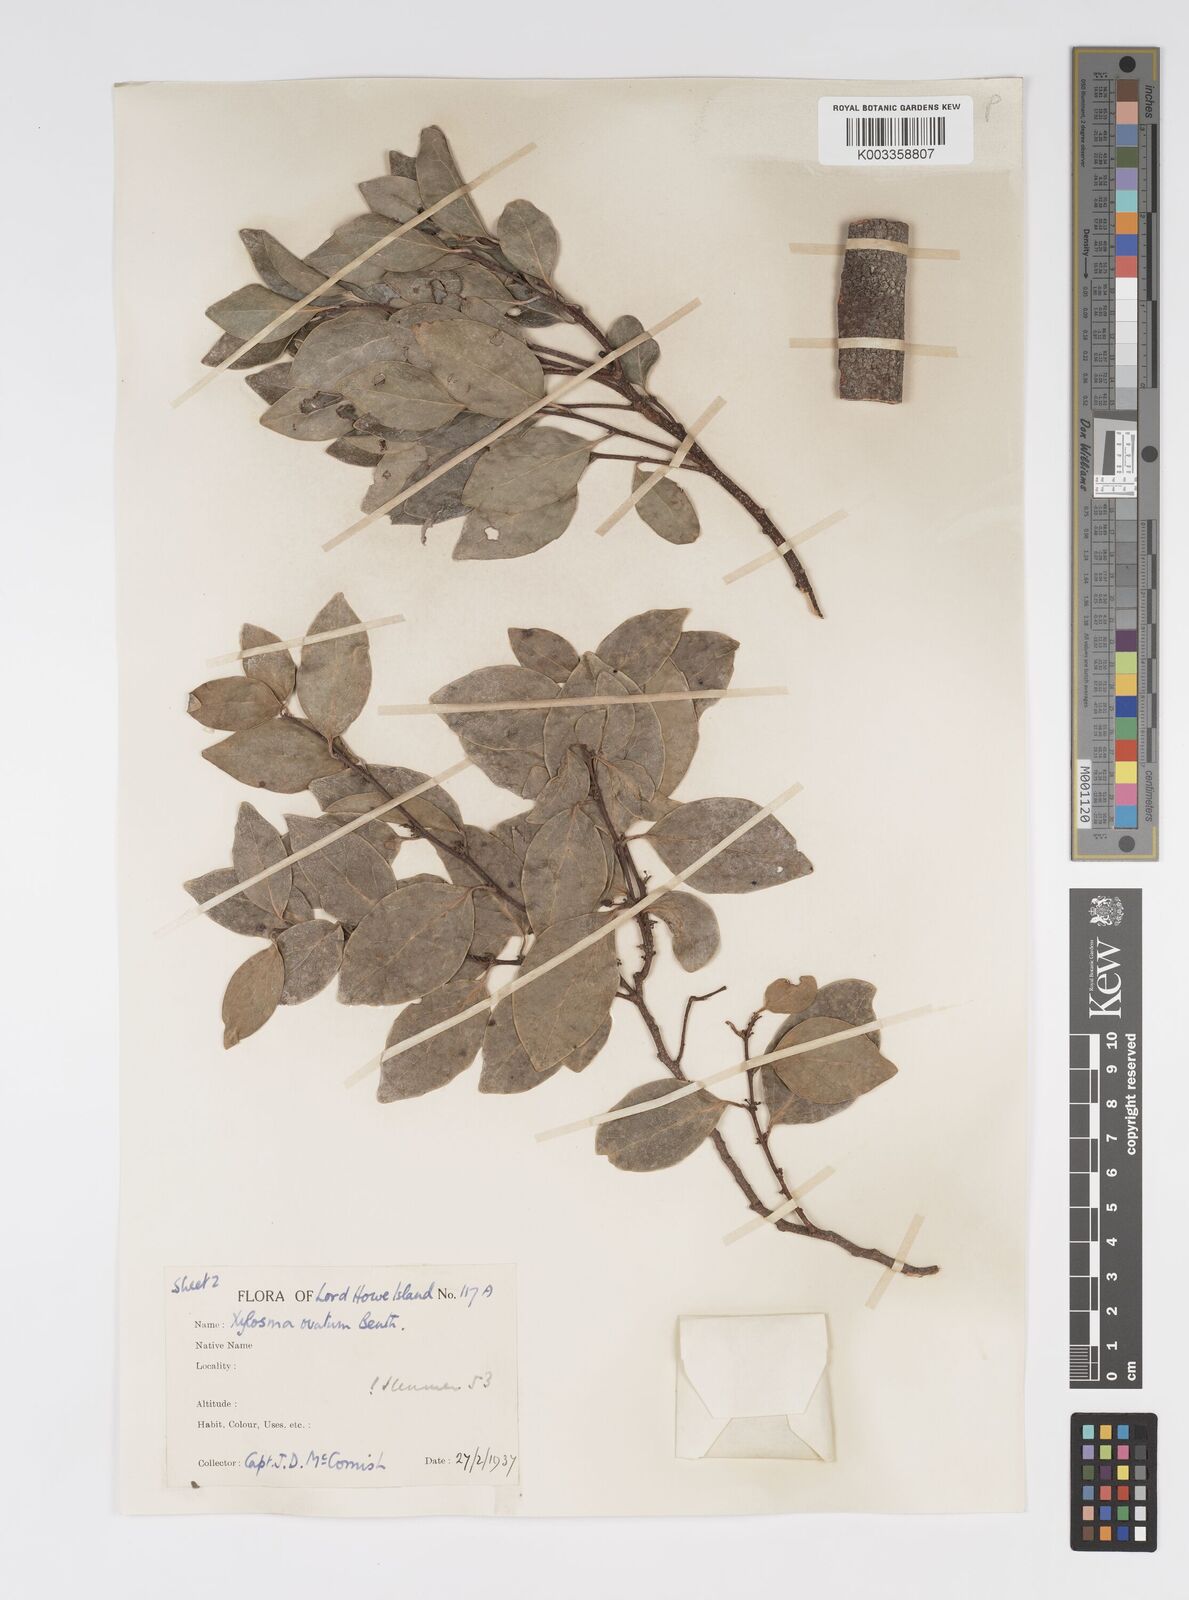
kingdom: Plantae
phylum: Tracheophyta
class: Magnoliopsida
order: Malpighiales
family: Salicaceae
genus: Xylosma
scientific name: Xylosma maidenii
